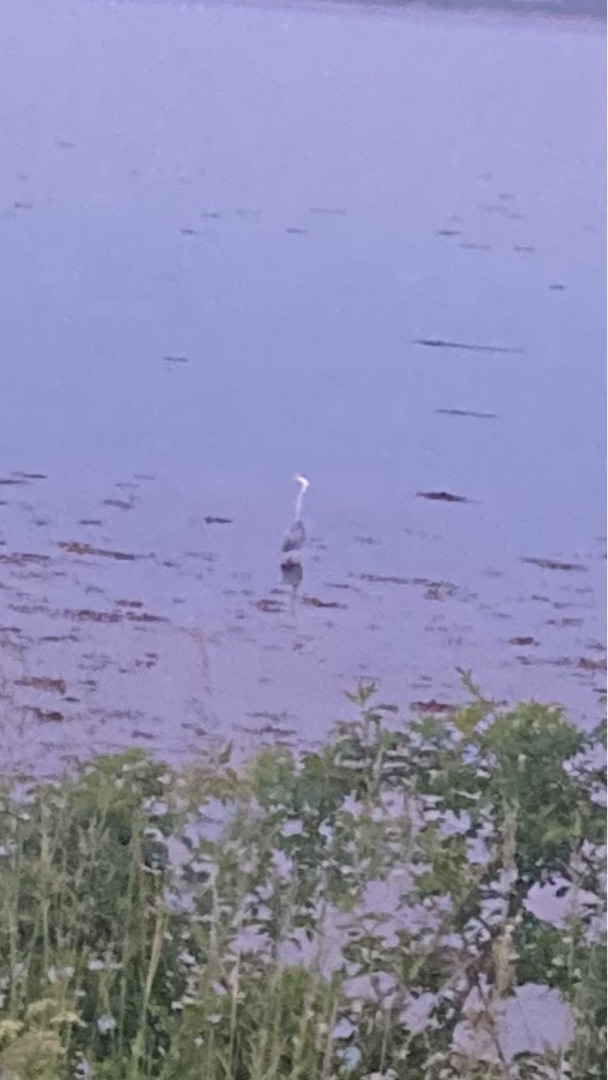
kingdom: Animalia
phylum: Chordata
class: Aves
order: Pelecaniformes
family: Ardeidae
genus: Ardea
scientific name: Ardea cinerea
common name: Fiskehejre
